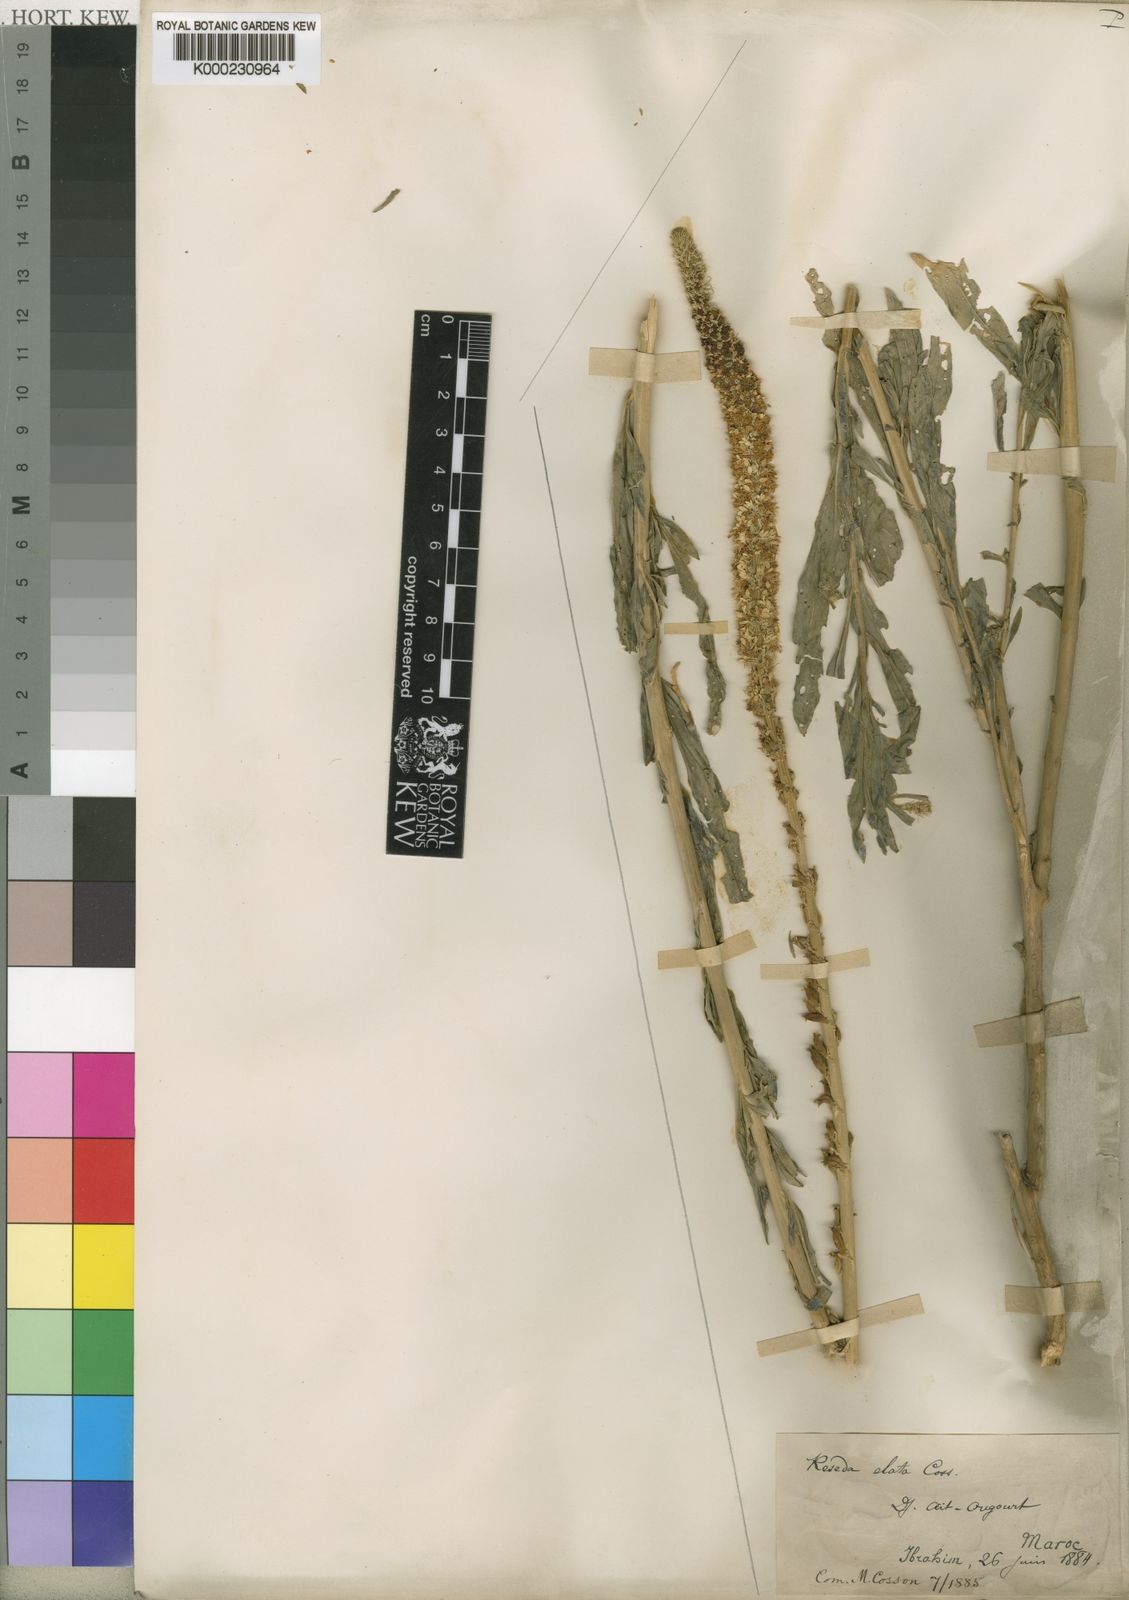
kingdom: Plantae
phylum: Tracheophyta
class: Magnoliopsida
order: Brassicales
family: Resedaceae
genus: Reseda
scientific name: Reseda
